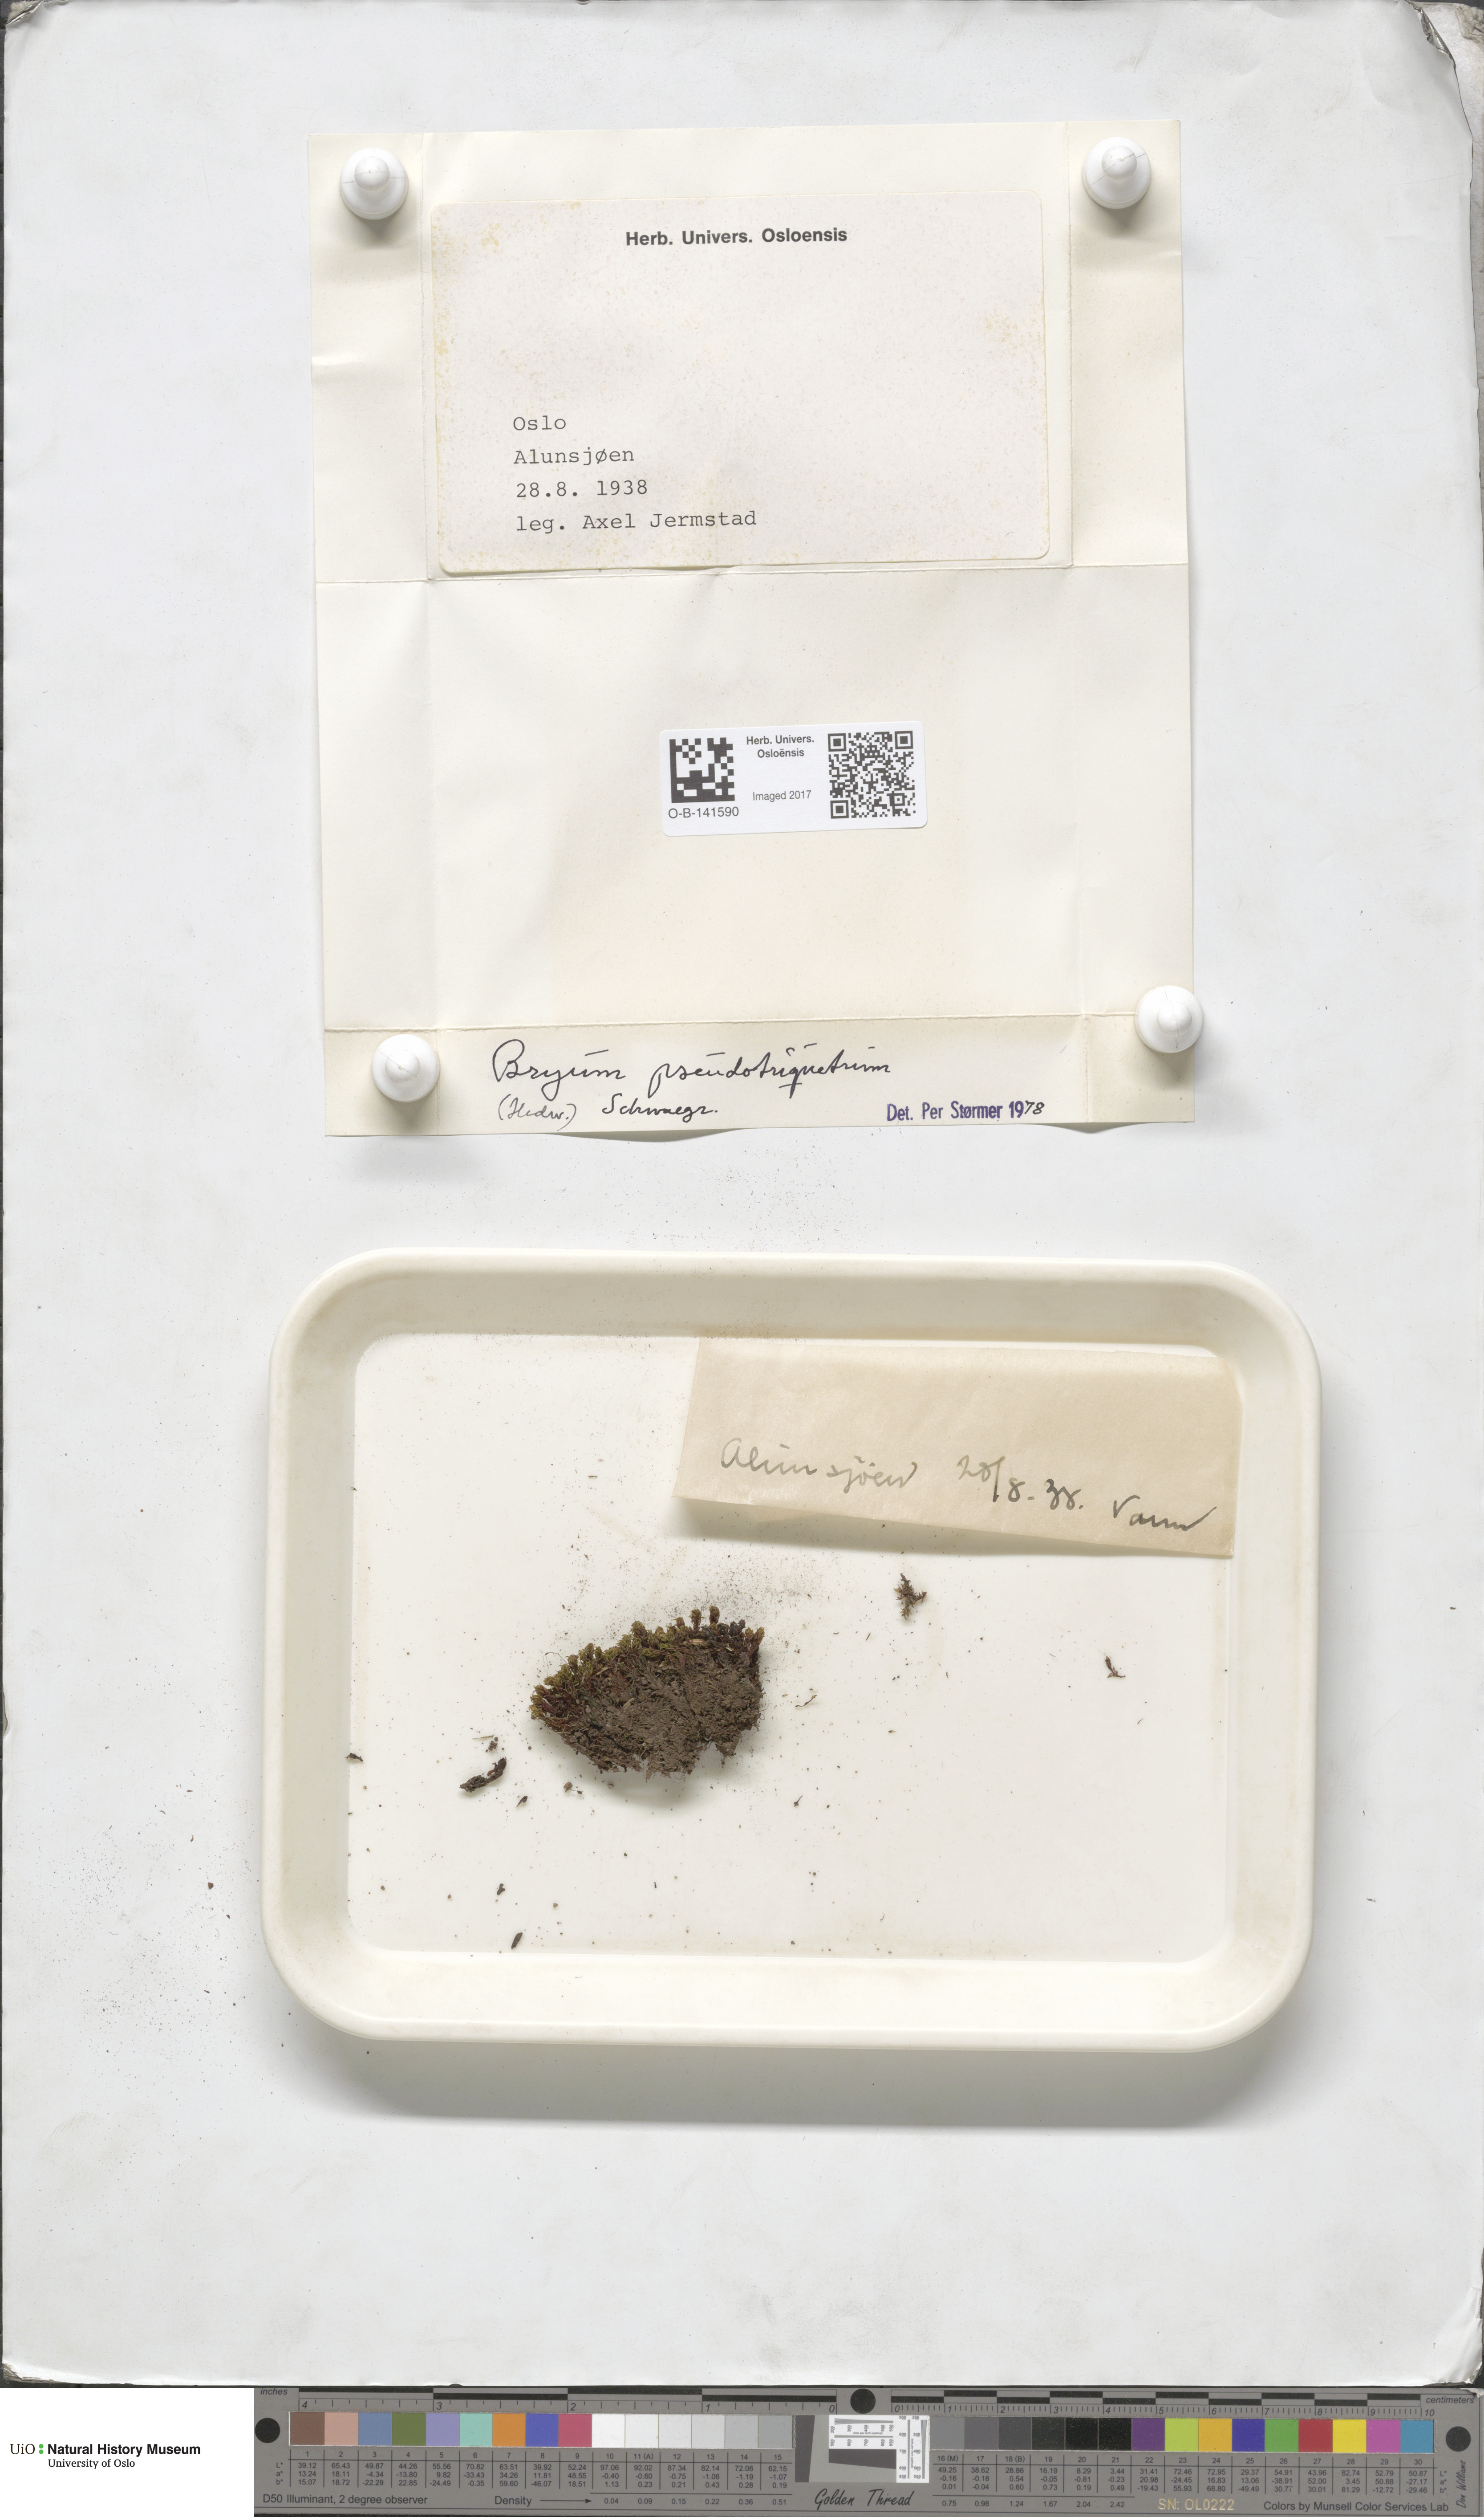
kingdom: Plantae
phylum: Bryophyta
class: Bryopsida
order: Bryales
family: Bryaceae
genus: Ptychostomum
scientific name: Ptychostomum pseudotriquetrum
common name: Long-leaved thread moss
